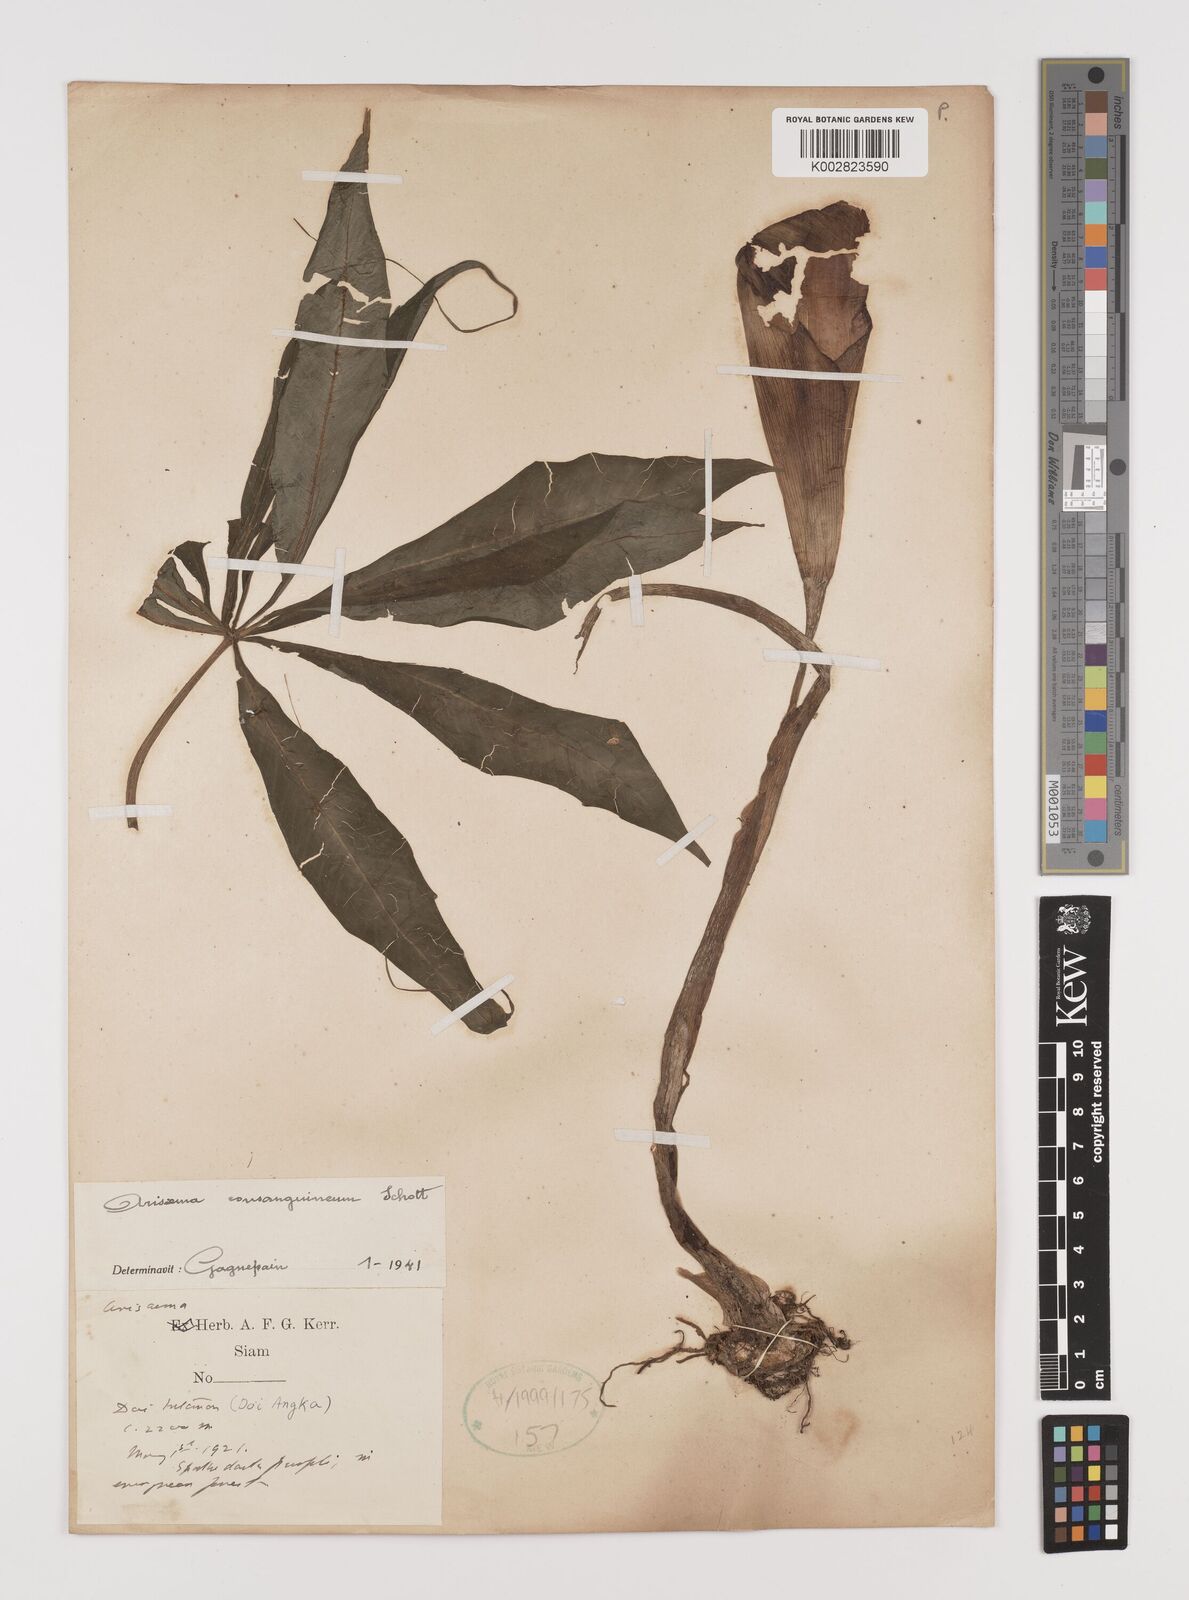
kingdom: Plantae
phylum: Tracheophyta
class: Liliopsida
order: Alismatales
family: Araceae
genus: Arisaema
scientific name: Arisaema consanguineum
